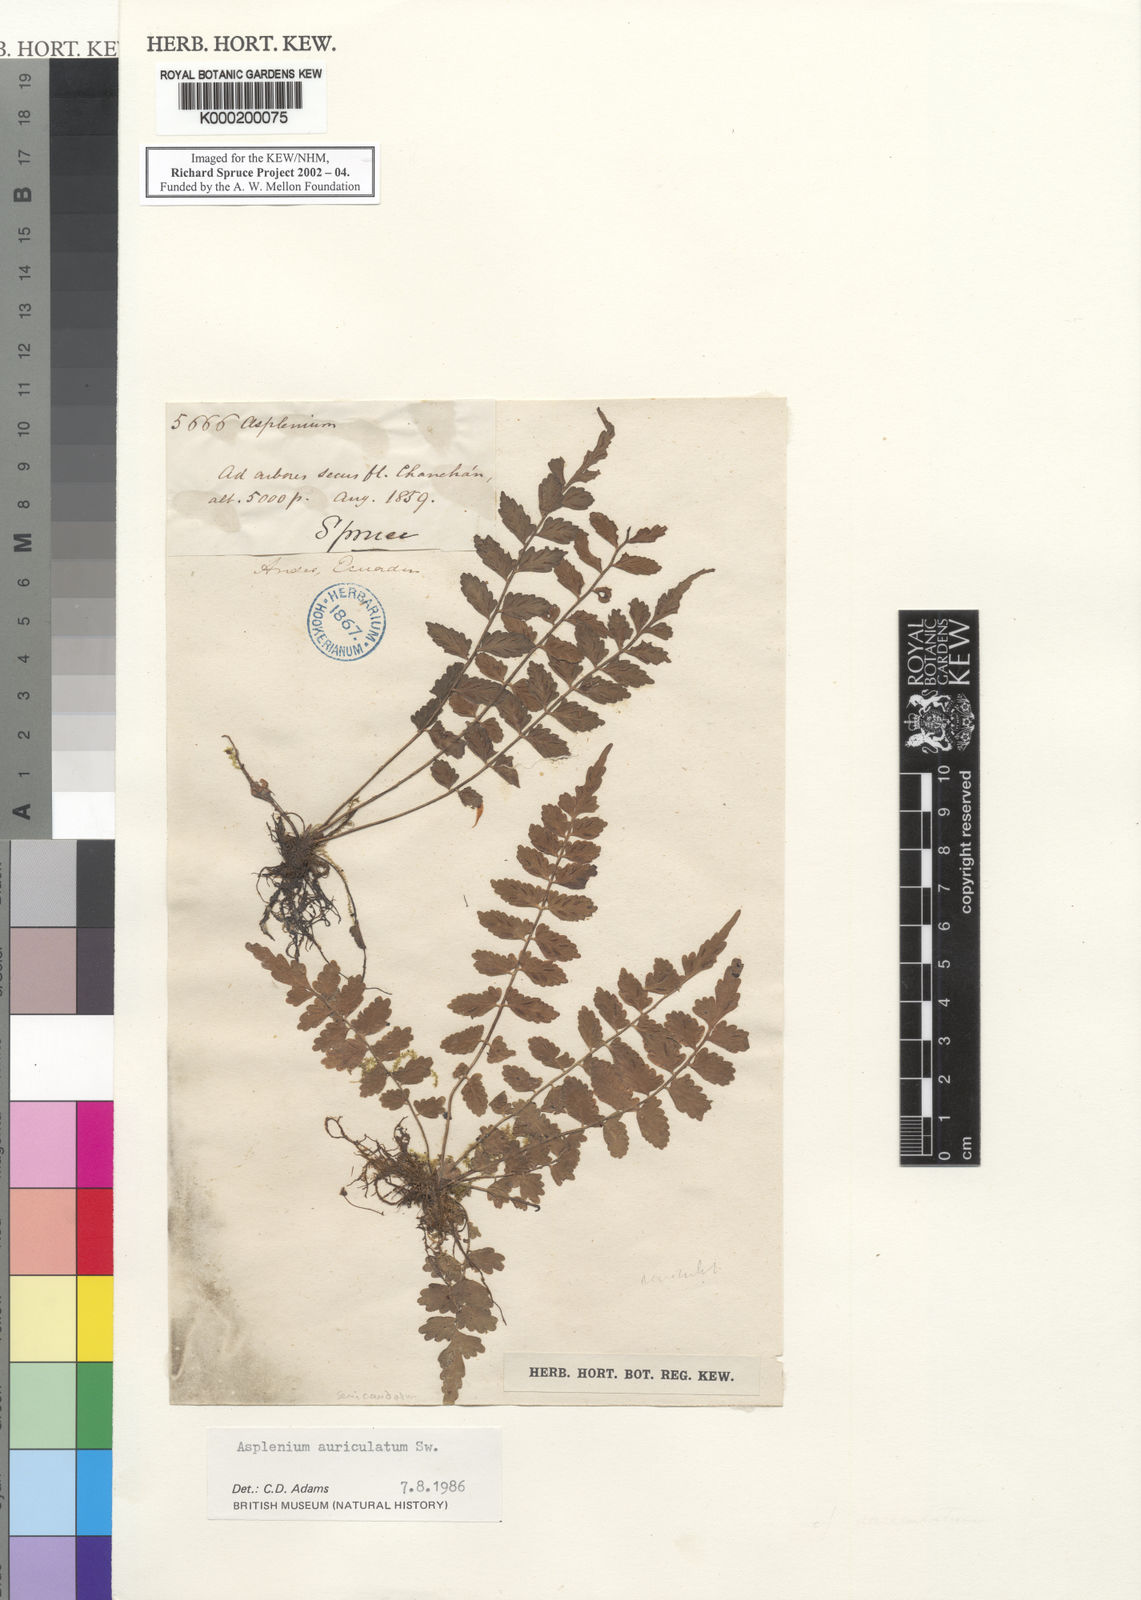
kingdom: Plantae
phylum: Tracheophyta
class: Polypodiopsida
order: Polypodiales
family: Aspleniaceae
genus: Asplenium
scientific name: Asplenium auriculatum
